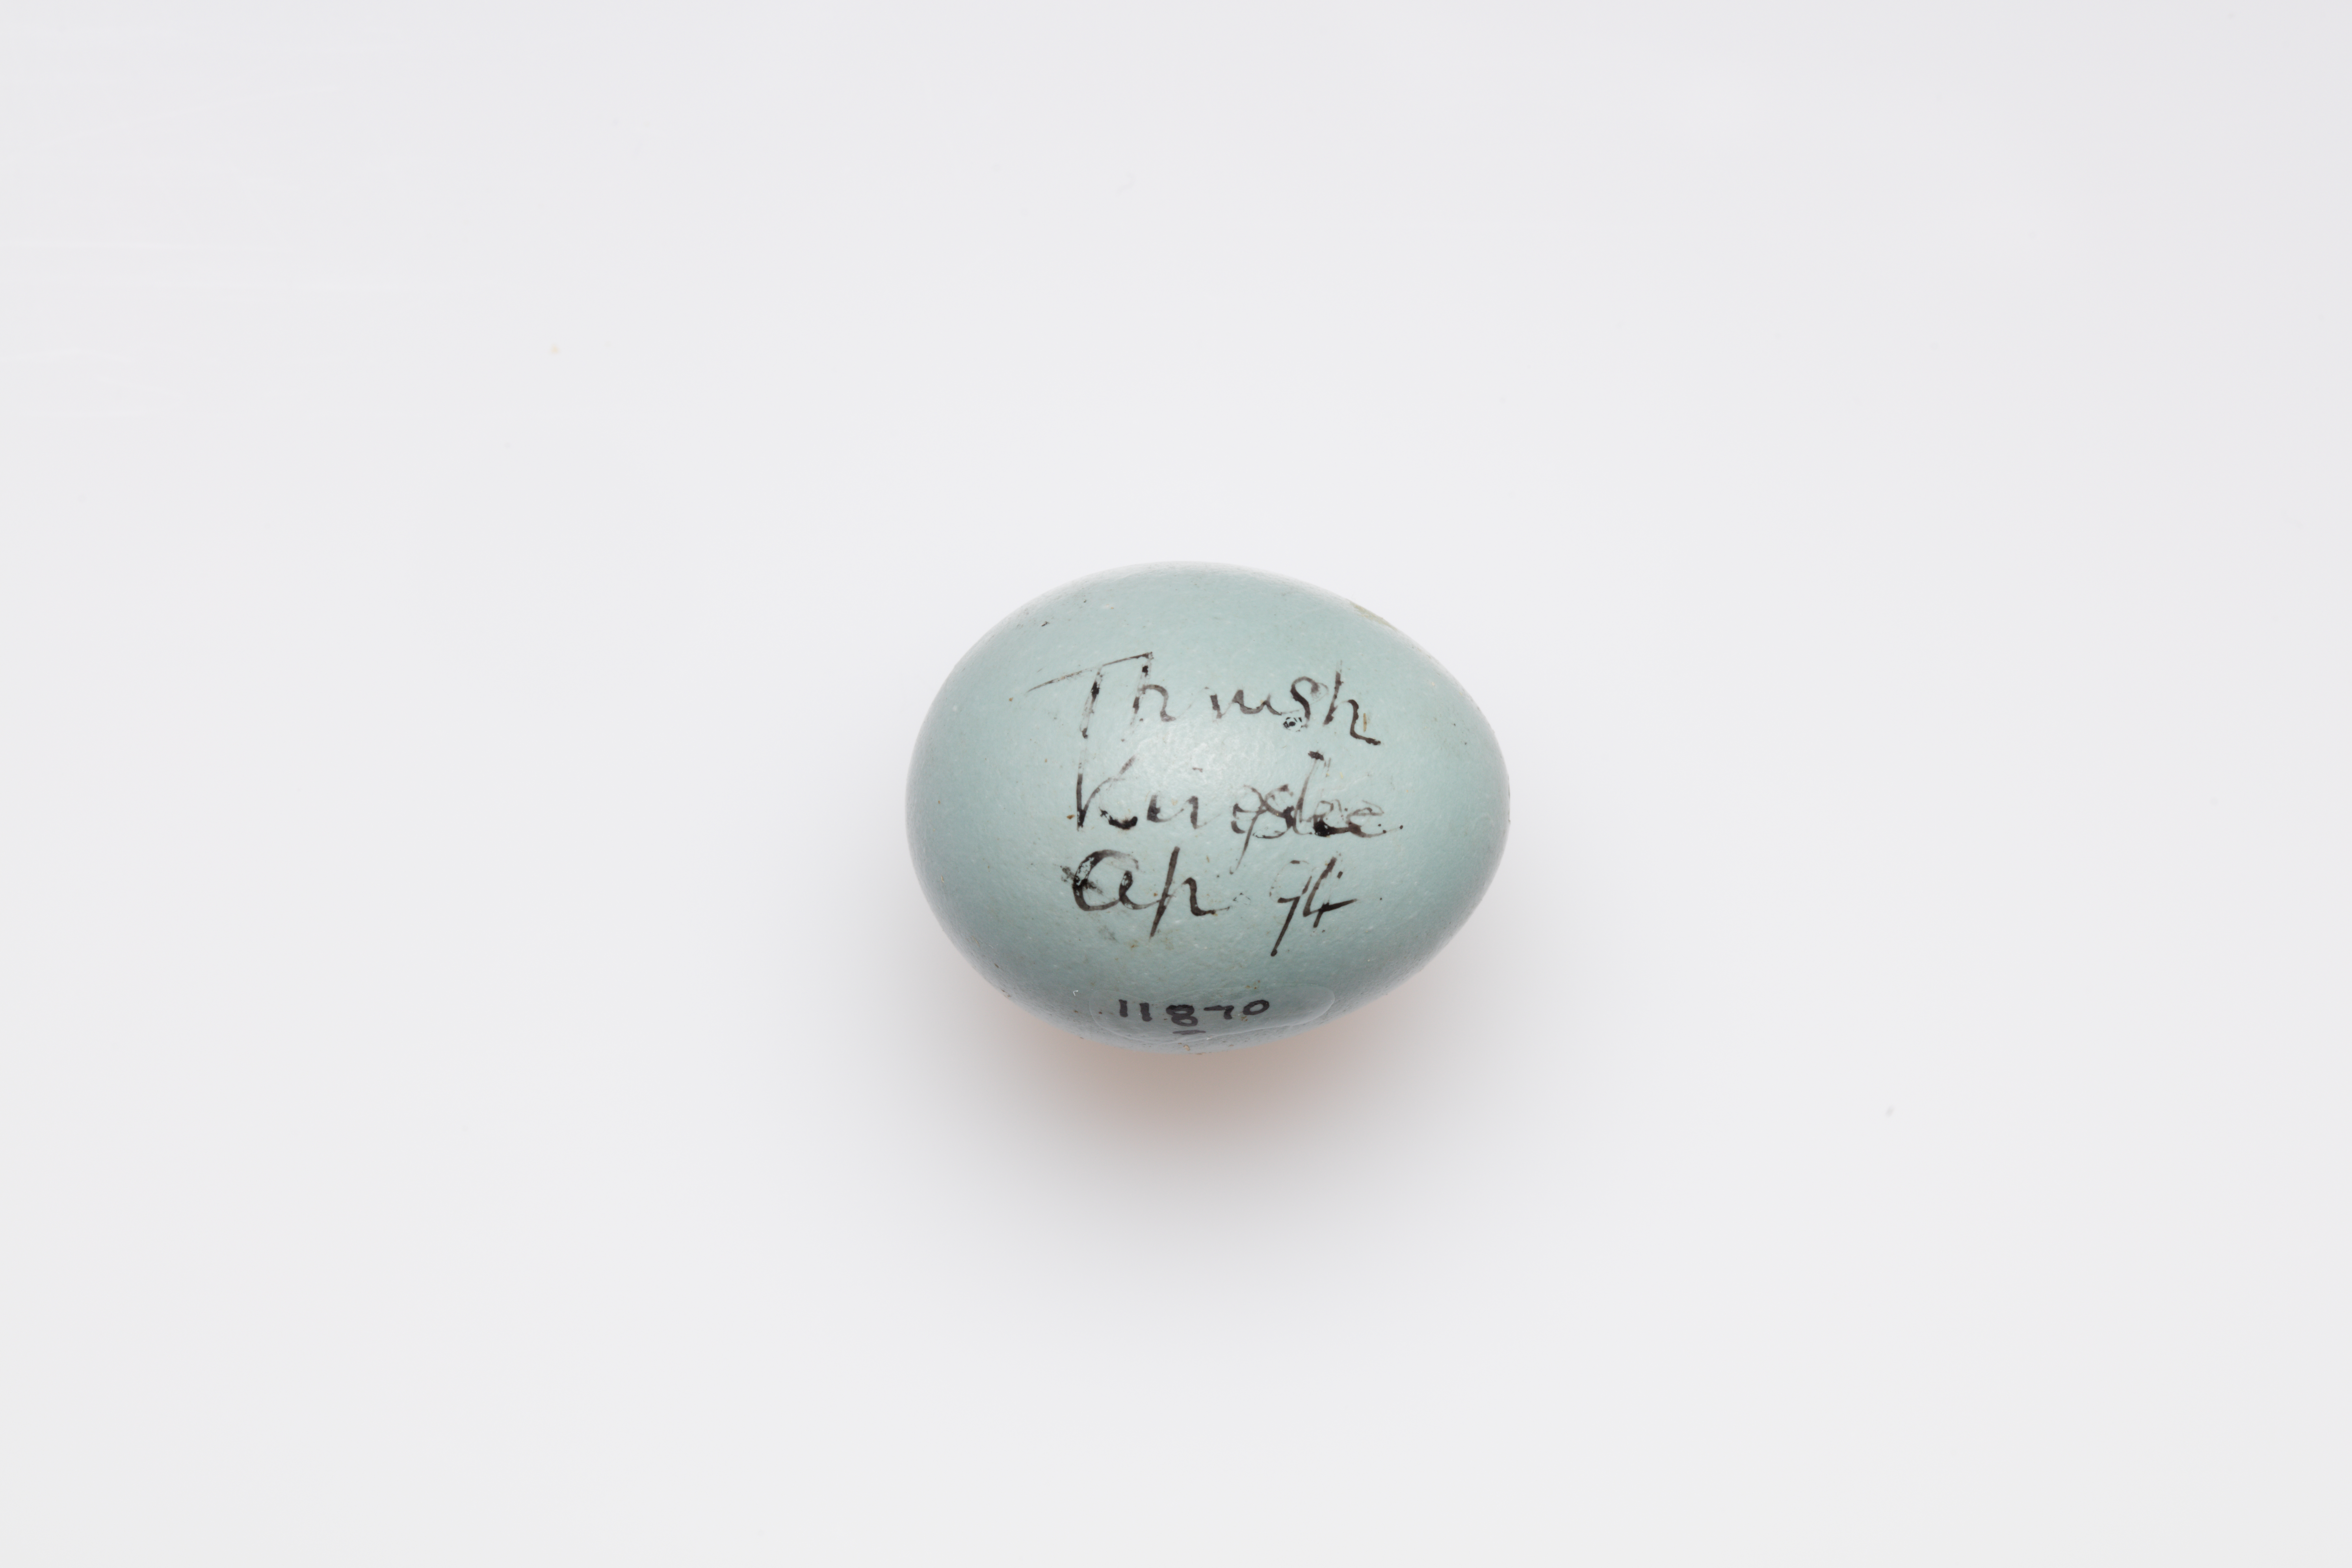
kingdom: Animalia
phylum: Chordata
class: Aves
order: Passeriformes
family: Turdidae
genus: Turdus
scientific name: Turdus philomelos
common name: Song thrush
